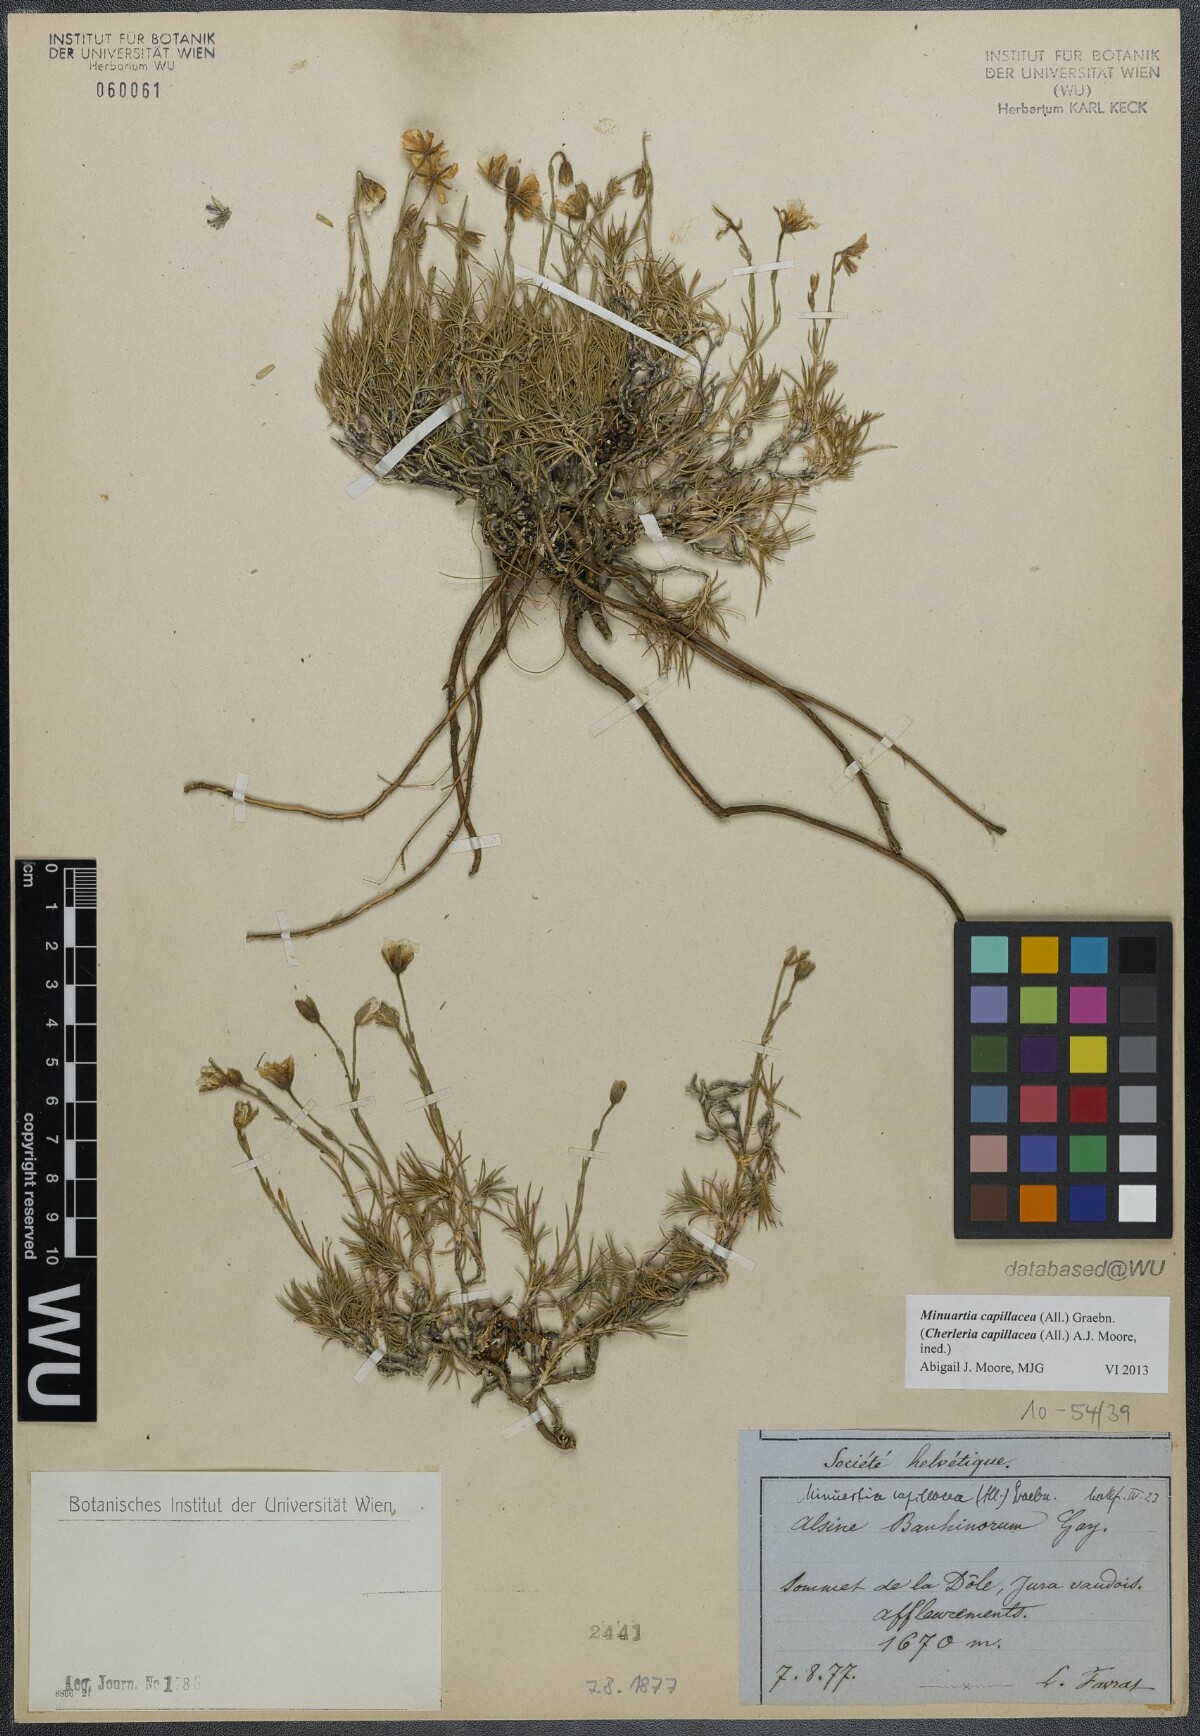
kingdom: Plantae
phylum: Tracheophyta
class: Magnoliopsida
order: Caryophyllales
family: Caryophyllaceae
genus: Cherleria
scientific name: Cherleria capillacea
